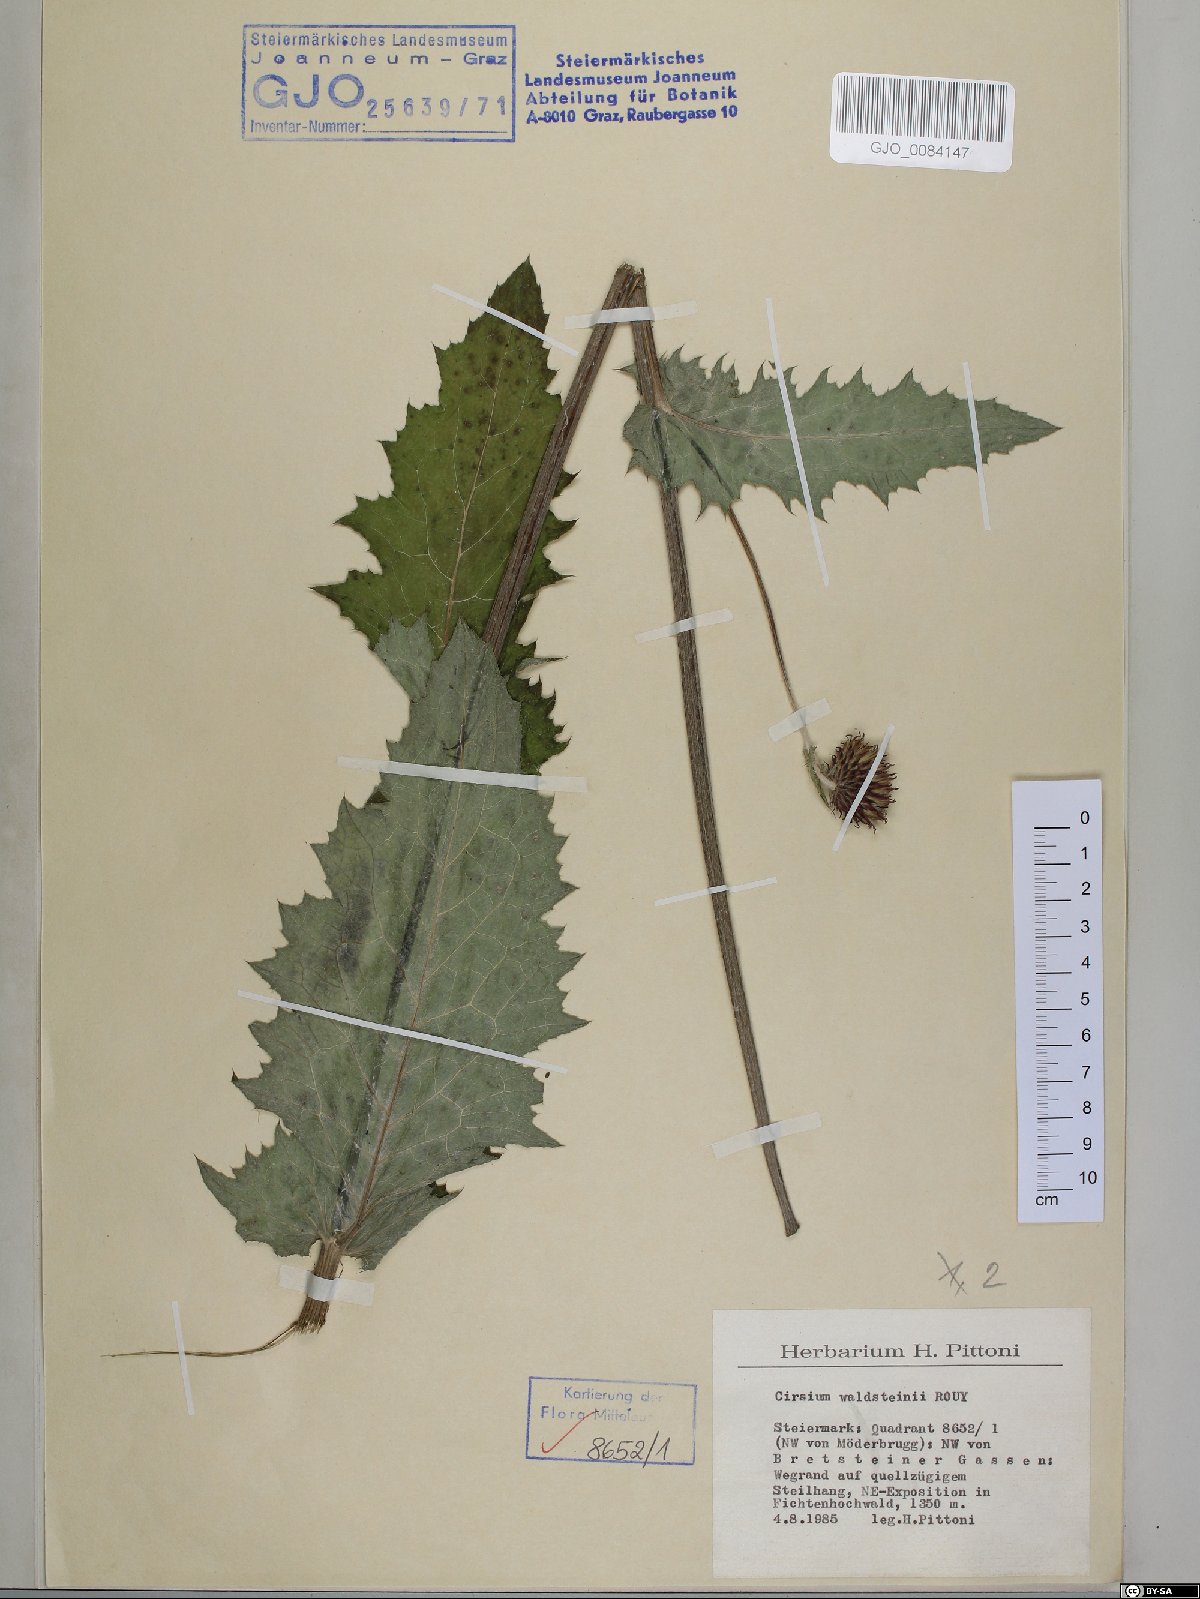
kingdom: Plantae
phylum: Tracheophyta
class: Magnoliopsida
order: Asterales
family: Asteraceae
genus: Cirsium
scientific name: Cirsium greimleri
